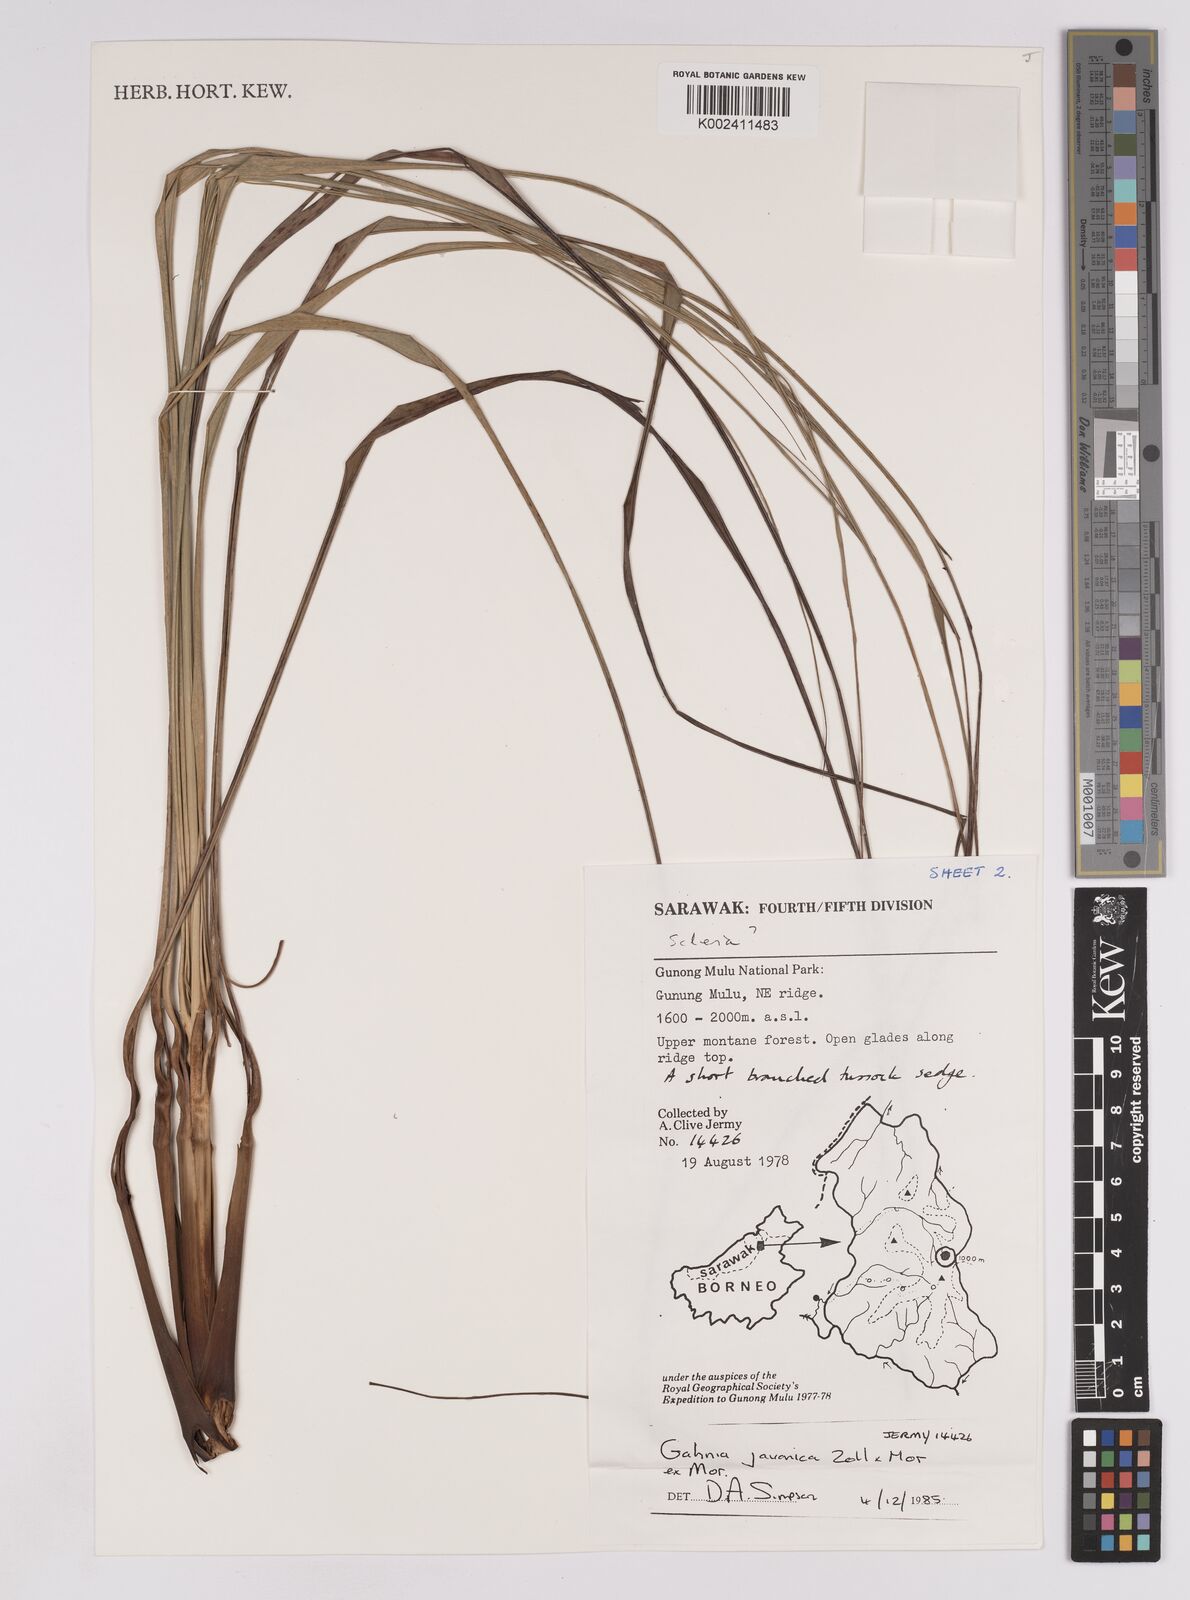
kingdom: Plantae
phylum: Tracheophyta
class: Liliopsida
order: Poales
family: Cyperaceae
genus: Gahnia
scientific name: Gahnia javanica
